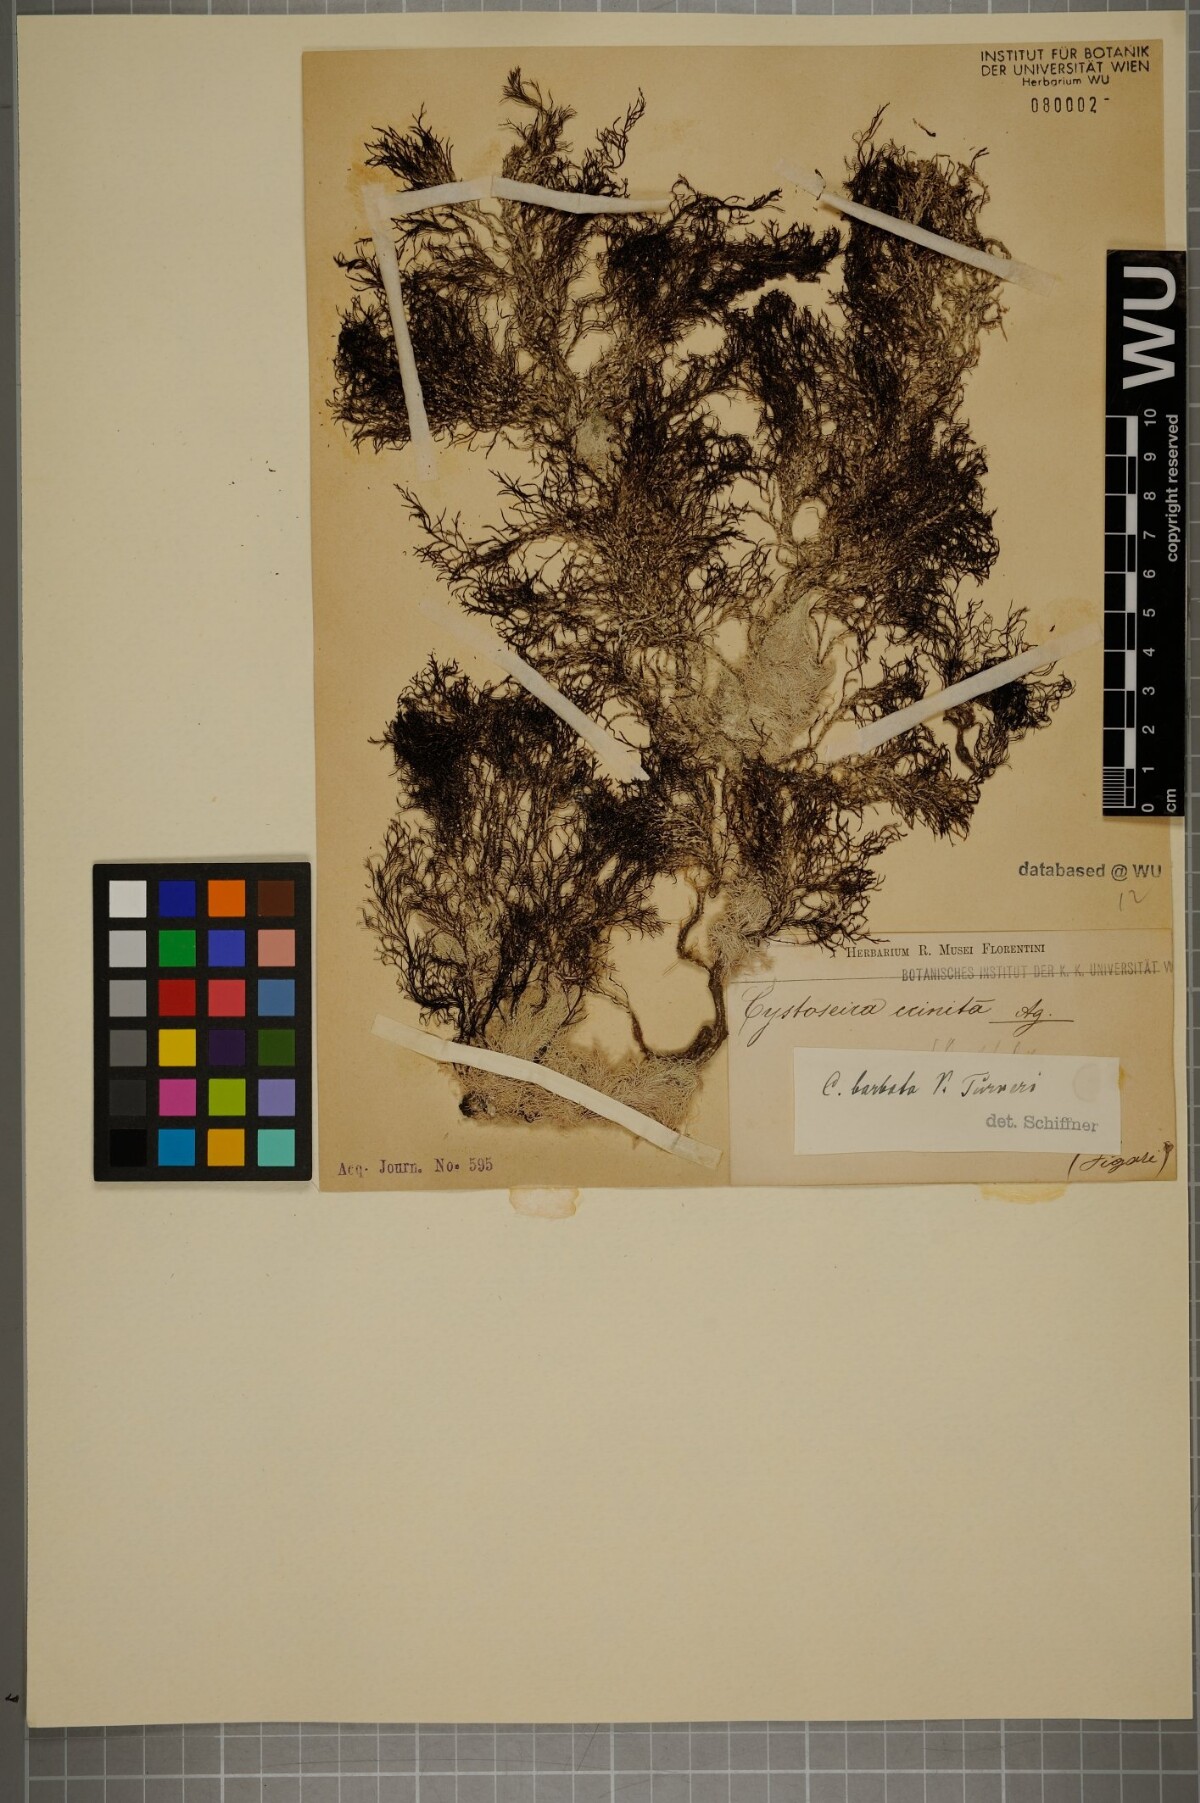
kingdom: Chromista
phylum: Ochrophyta
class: Phaeophyceae
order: Fucales
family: Sargassaceae
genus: Cystoseira
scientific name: Cystoseira Gongolaria barbata
